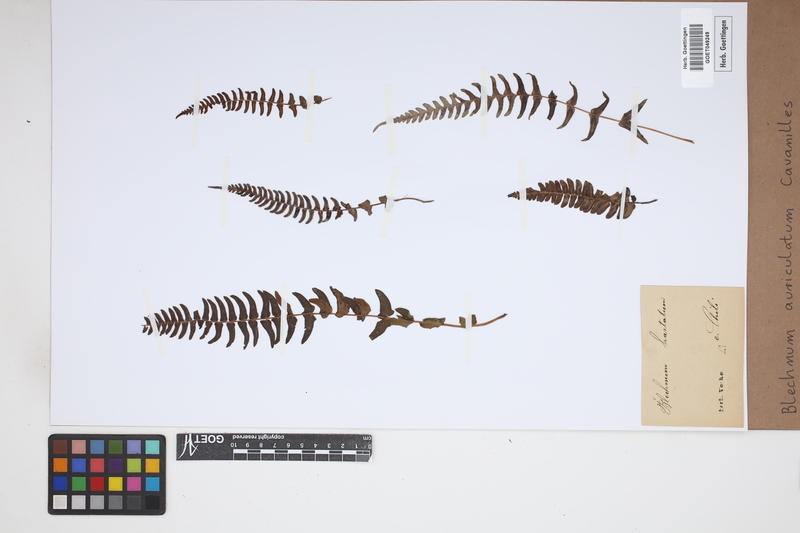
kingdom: Plantae
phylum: Tracheophyta
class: Polypodiopsida
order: Polypodiales
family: Blechnaceae
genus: Blechnum
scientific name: Blechnum auriculatum
